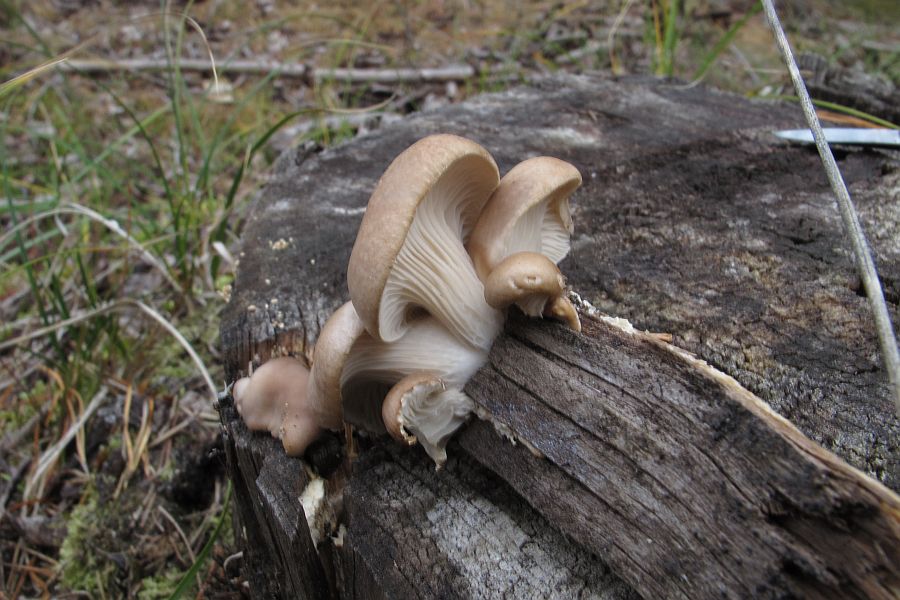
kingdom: Fungi
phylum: Basidiomycota
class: Agaricomycetes
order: Agaricales
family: Pleurotaceae
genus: Pleurotus
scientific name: Pleurotus ostreatus
